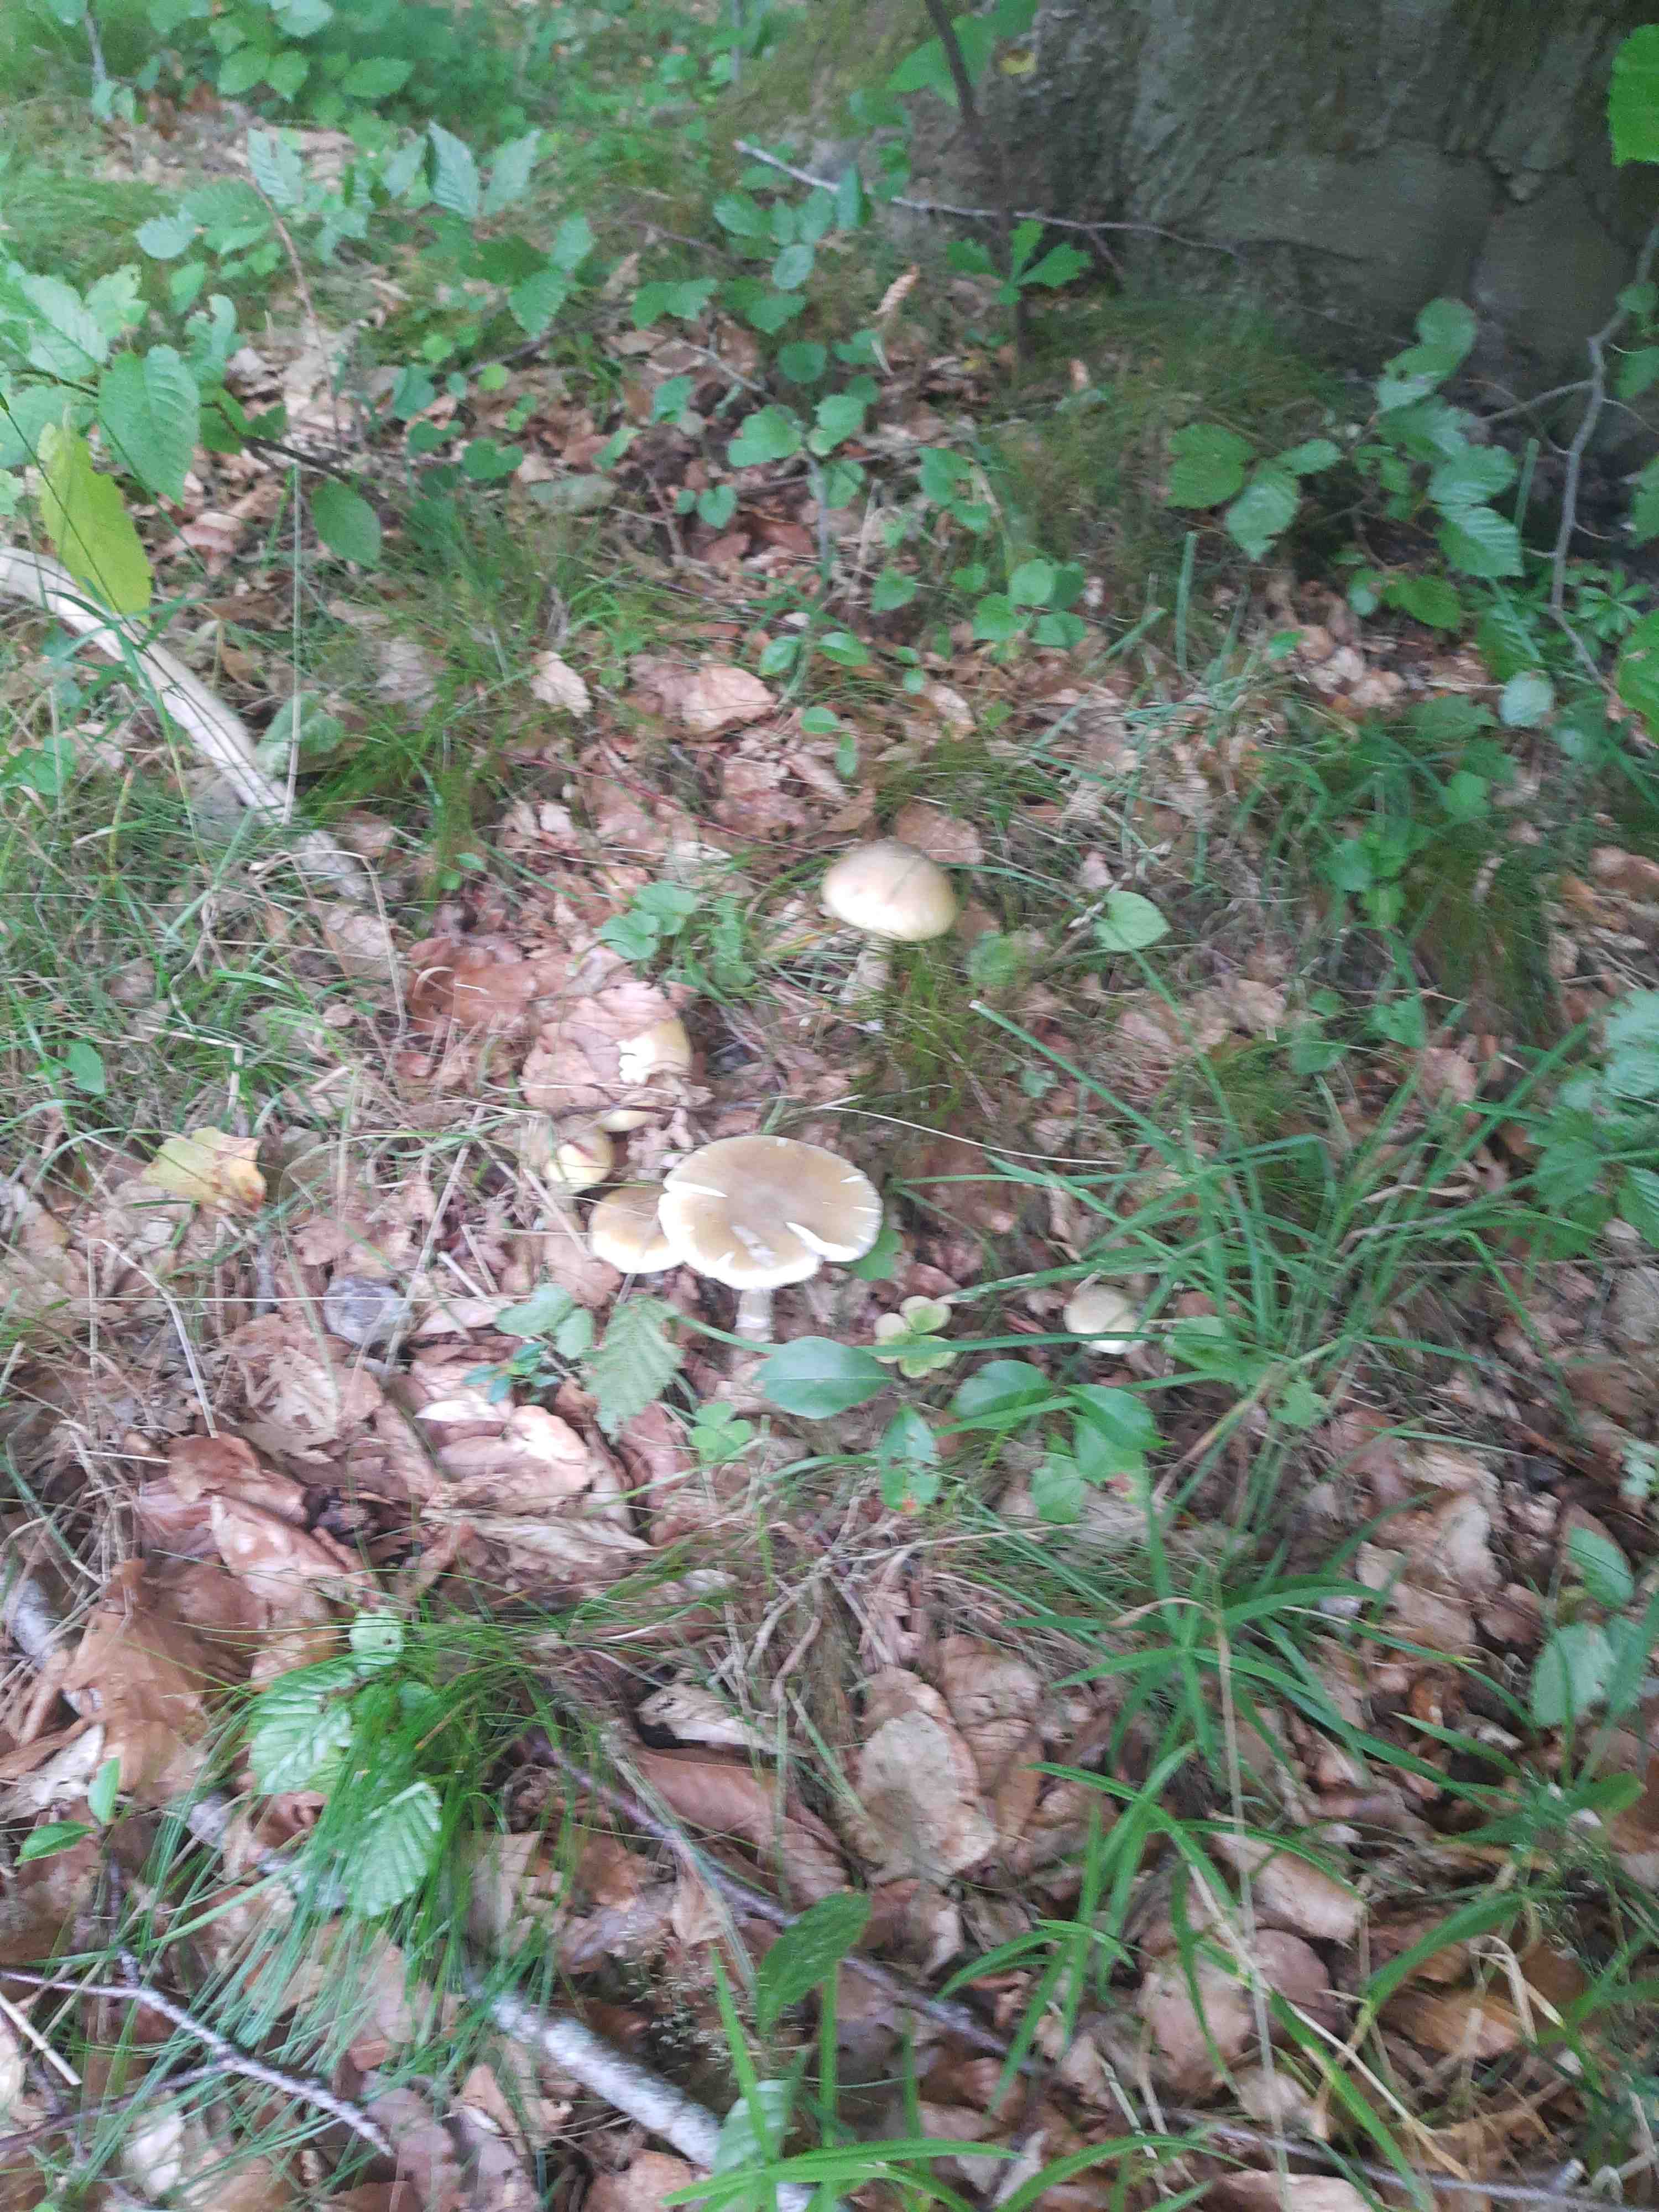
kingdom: Fungi
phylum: Basidiomycota
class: Agaricomycetes
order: Agaricales
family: Amanitaceae
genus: Amanita
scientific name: Amanita phalloides
